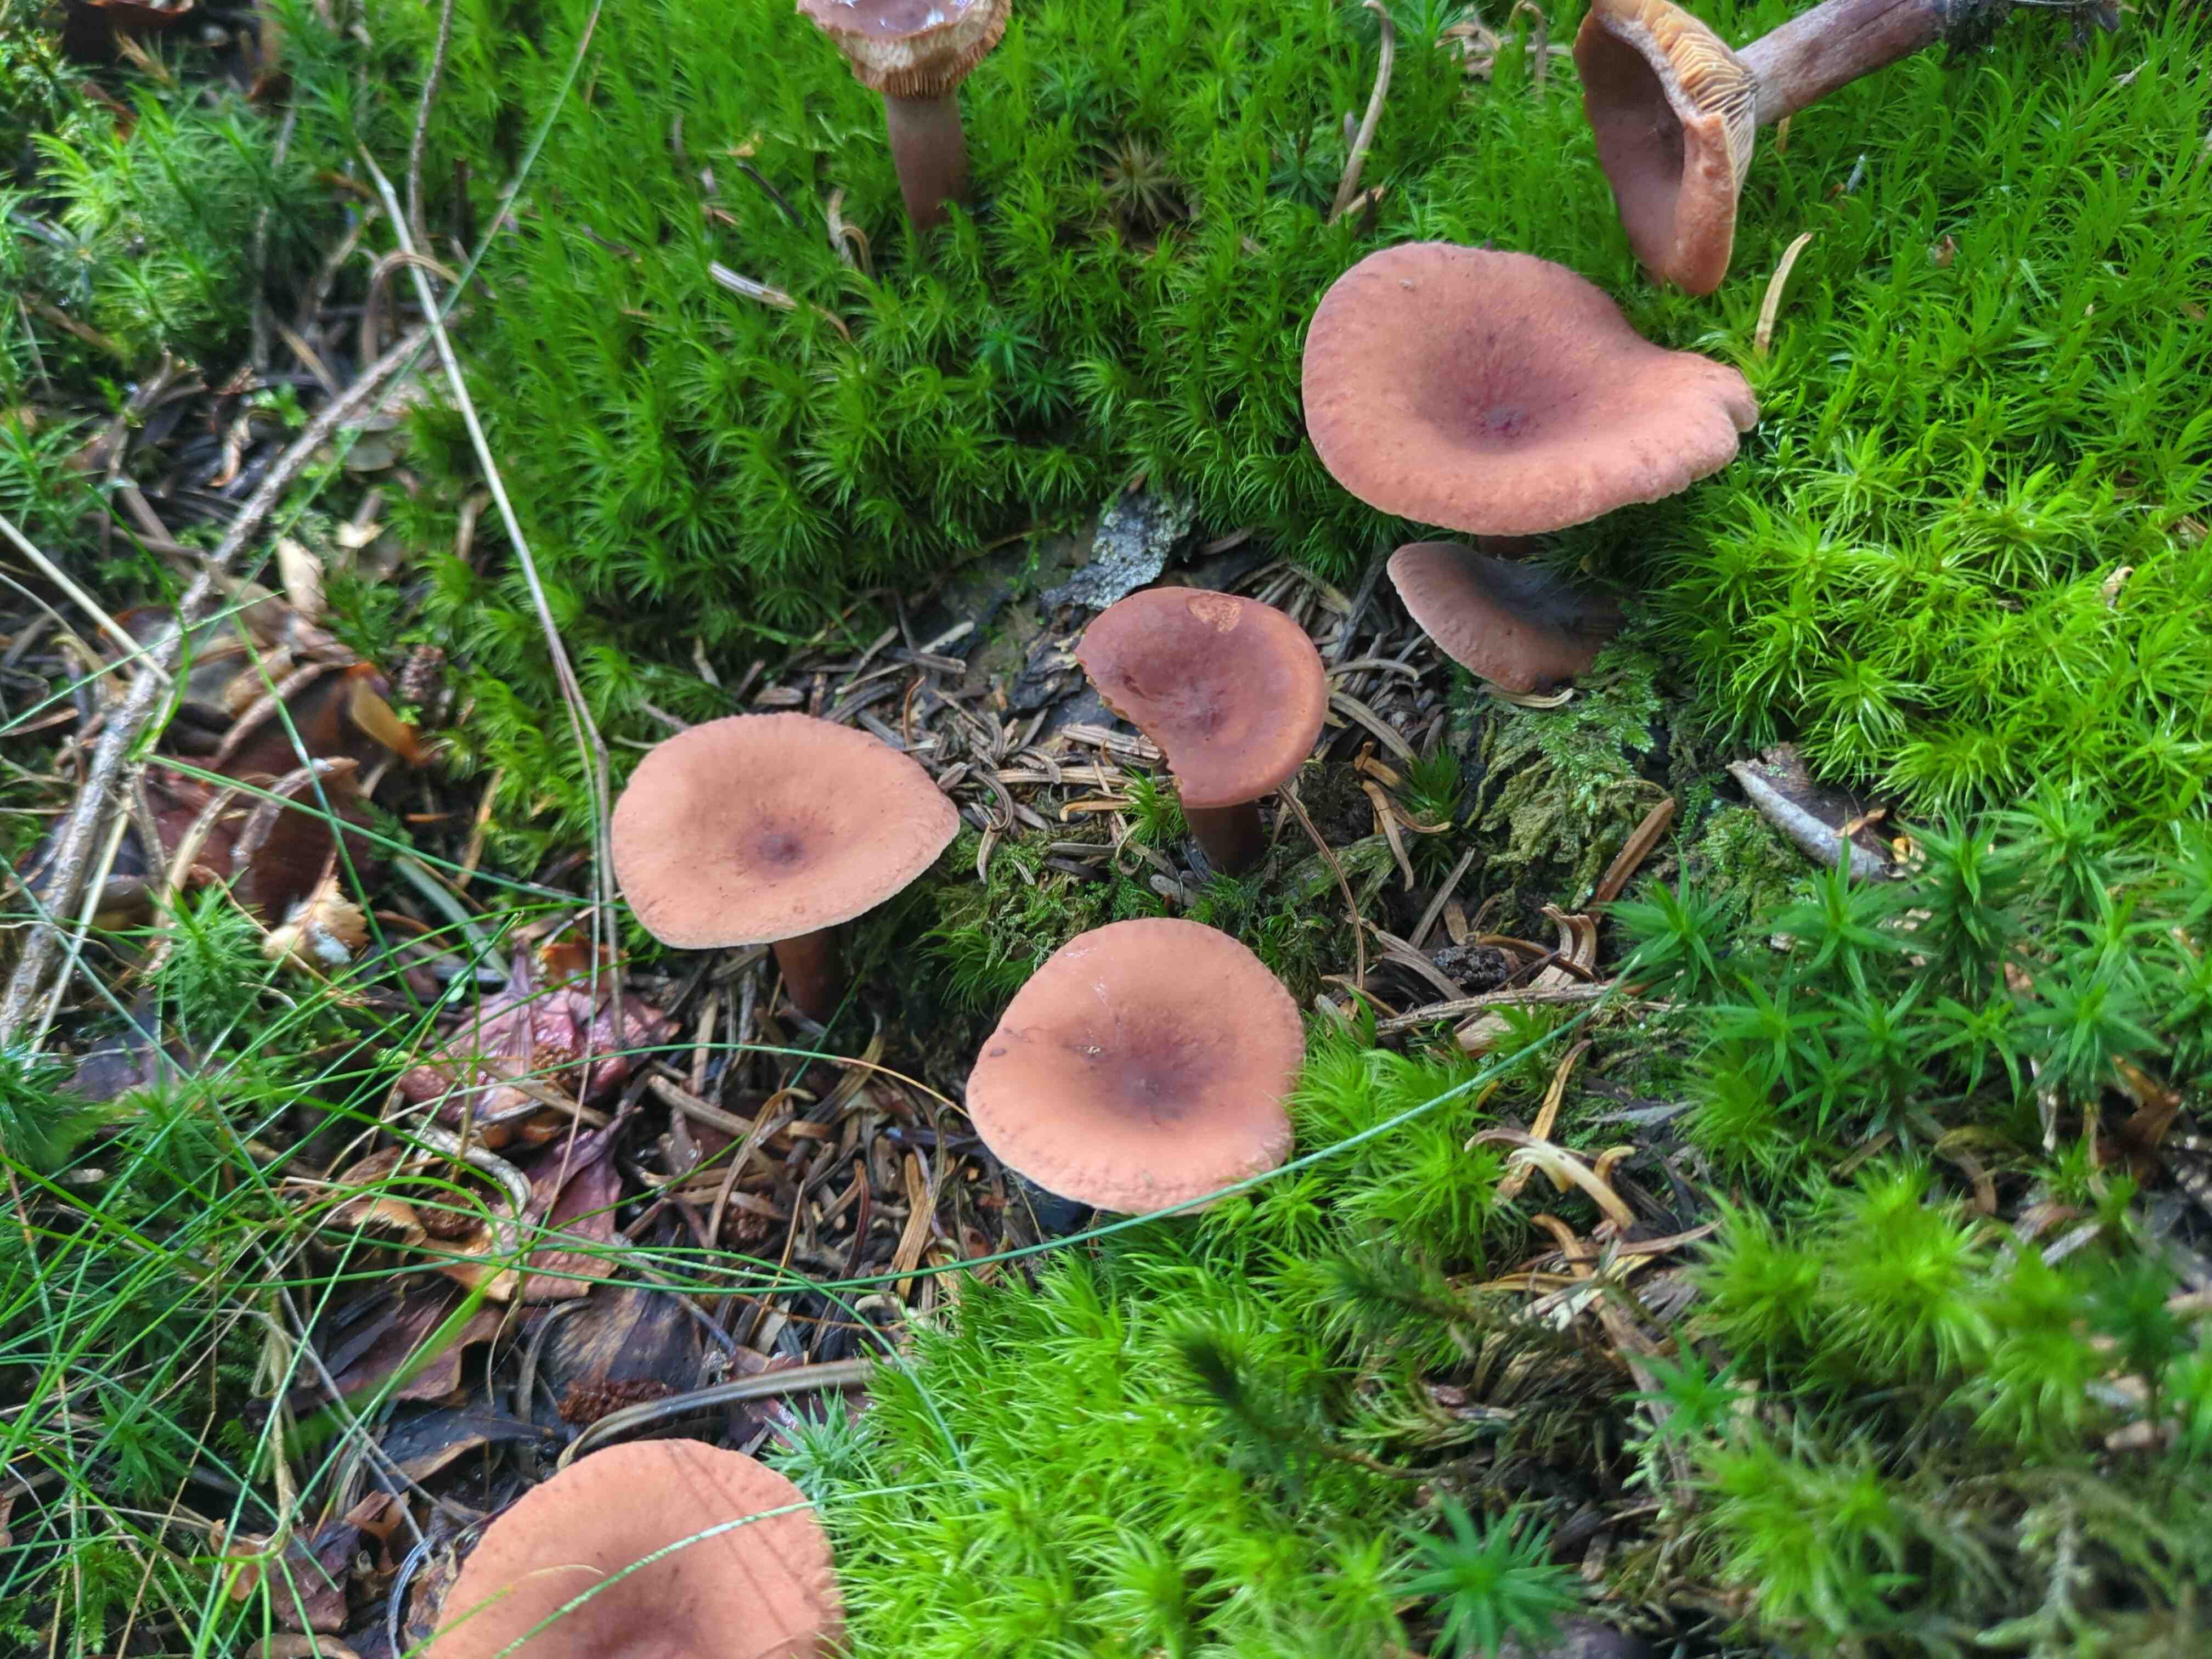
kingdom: Fungi
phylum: Basidiomycota
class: Agaricomycetes
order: Russulales
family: Russulaceae
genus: Lactarius
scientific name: Lactarius camphoratus
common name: kamfer-mælkehat
